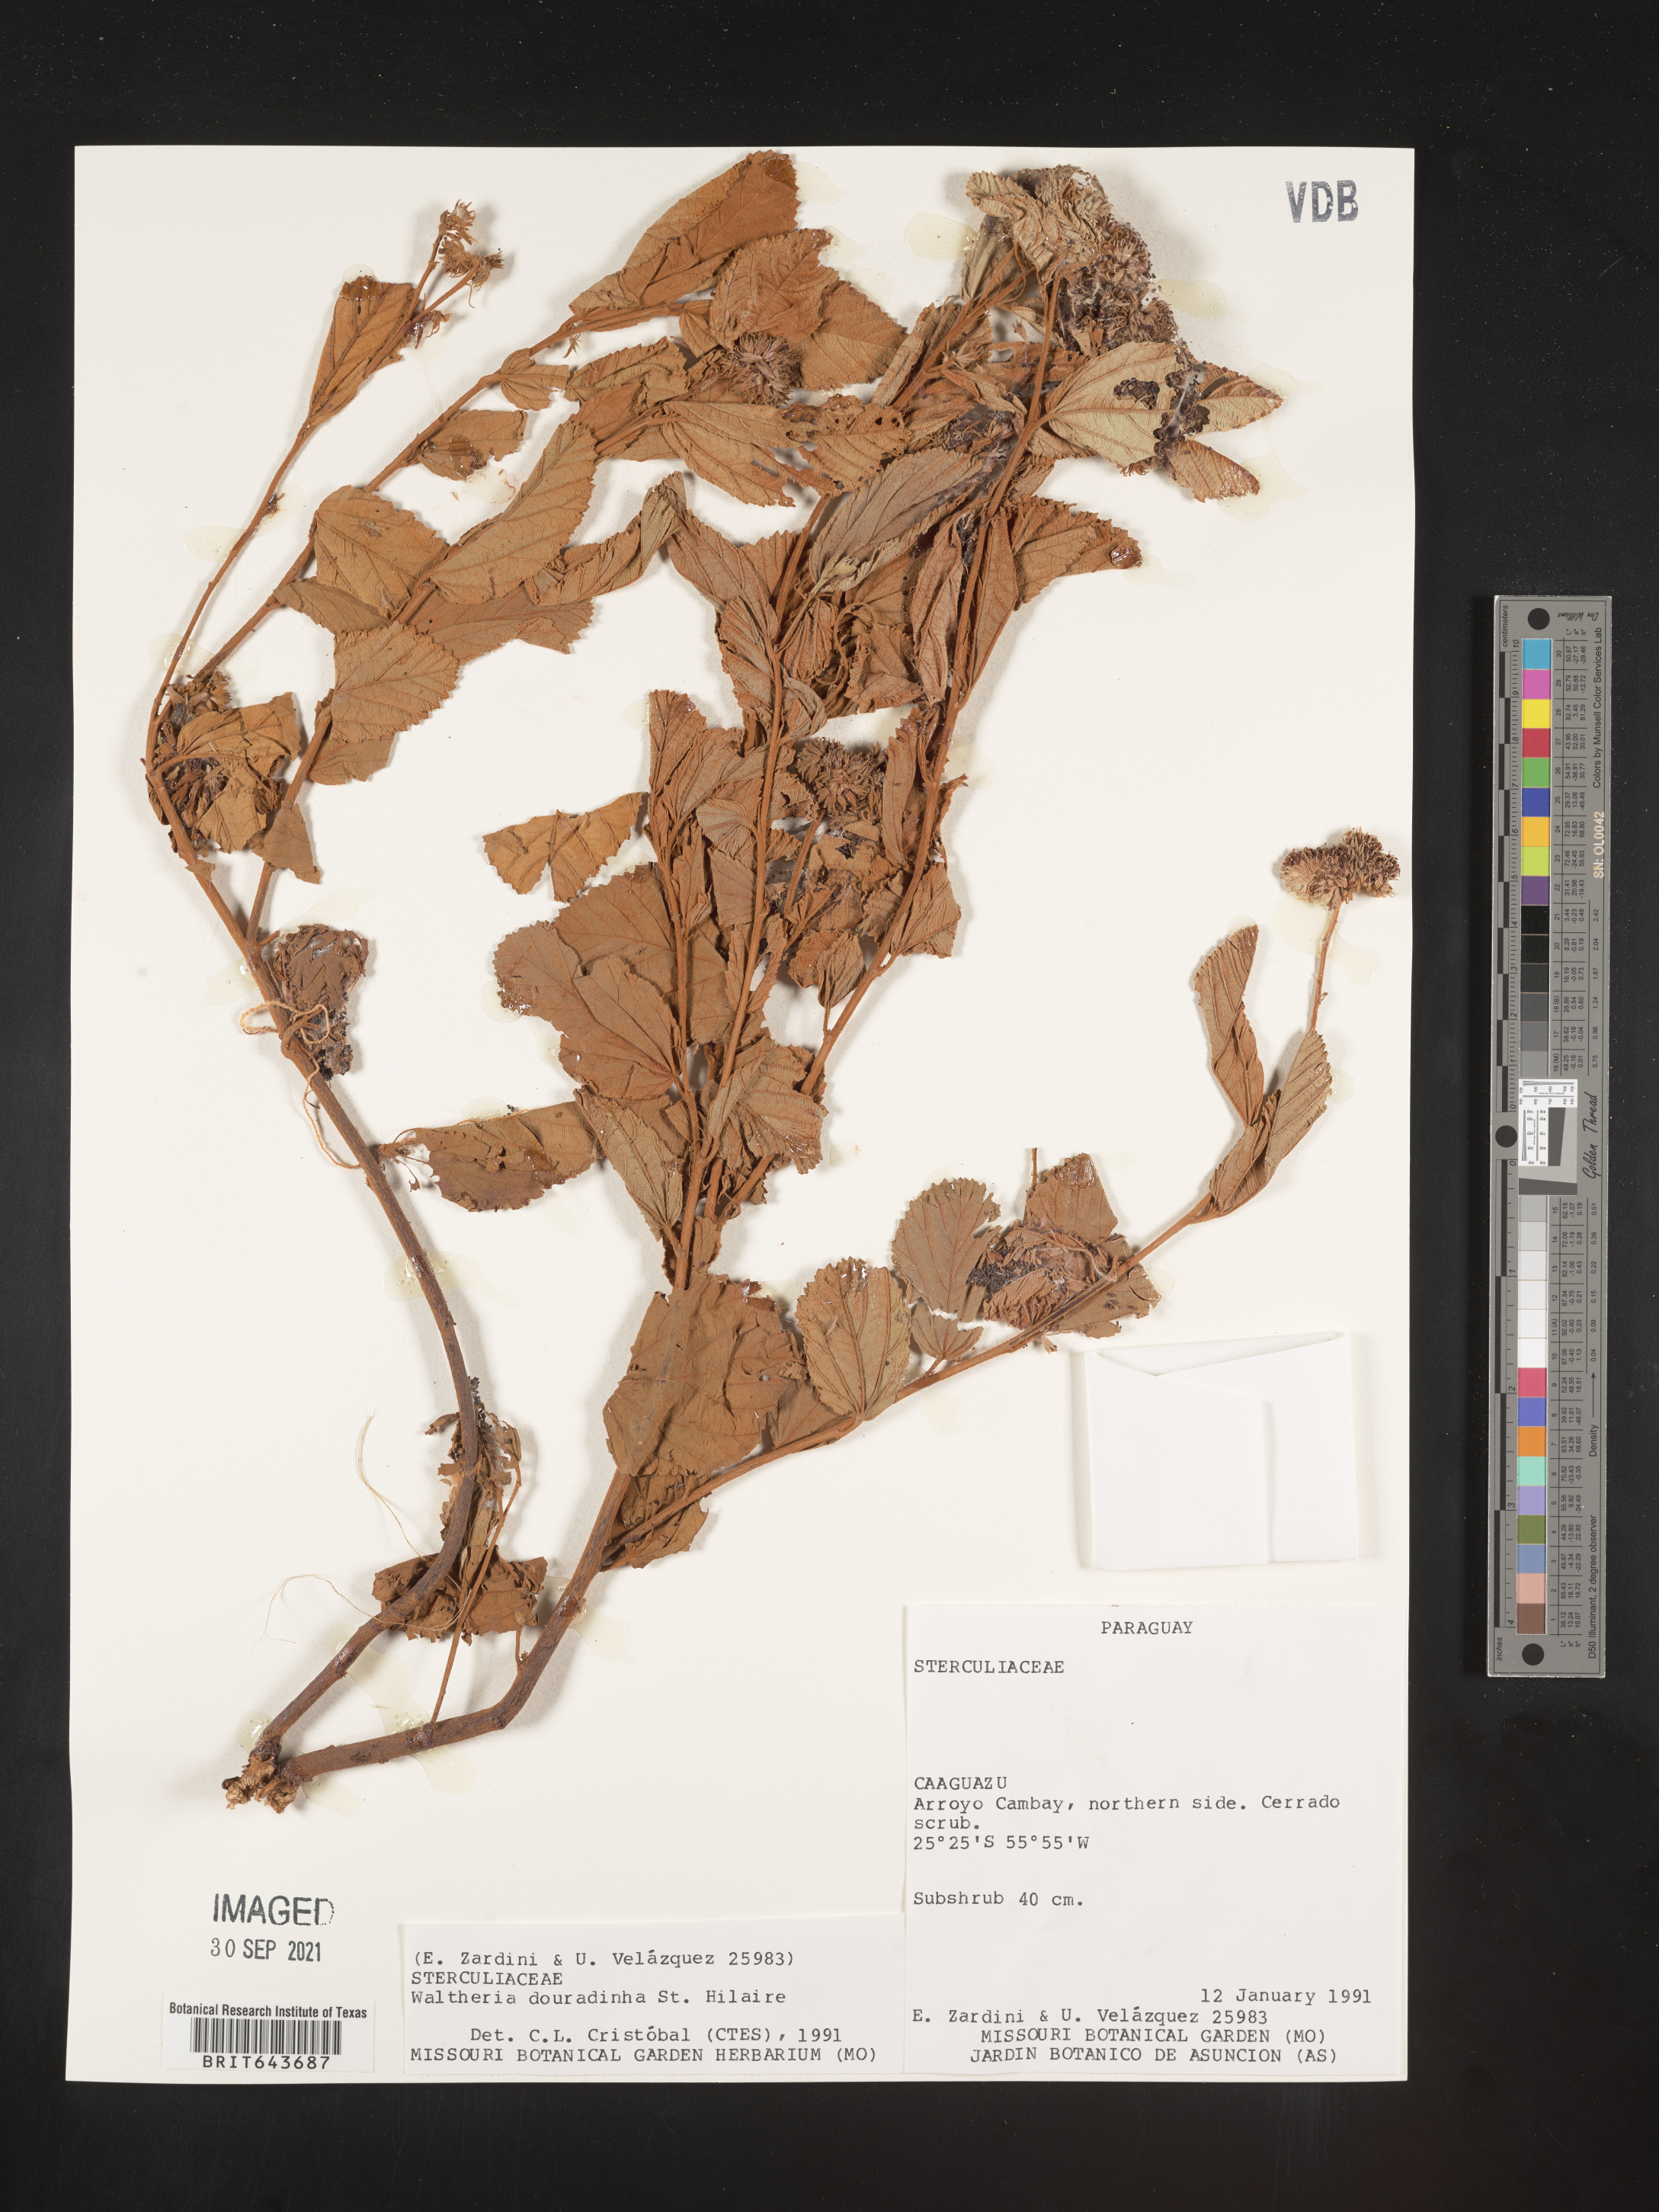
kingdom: Plantae
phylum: Tracheophyta
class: Magnoliopsida
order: Malvales
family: Malvaceae
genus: Waltheria
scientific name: Waltheria
